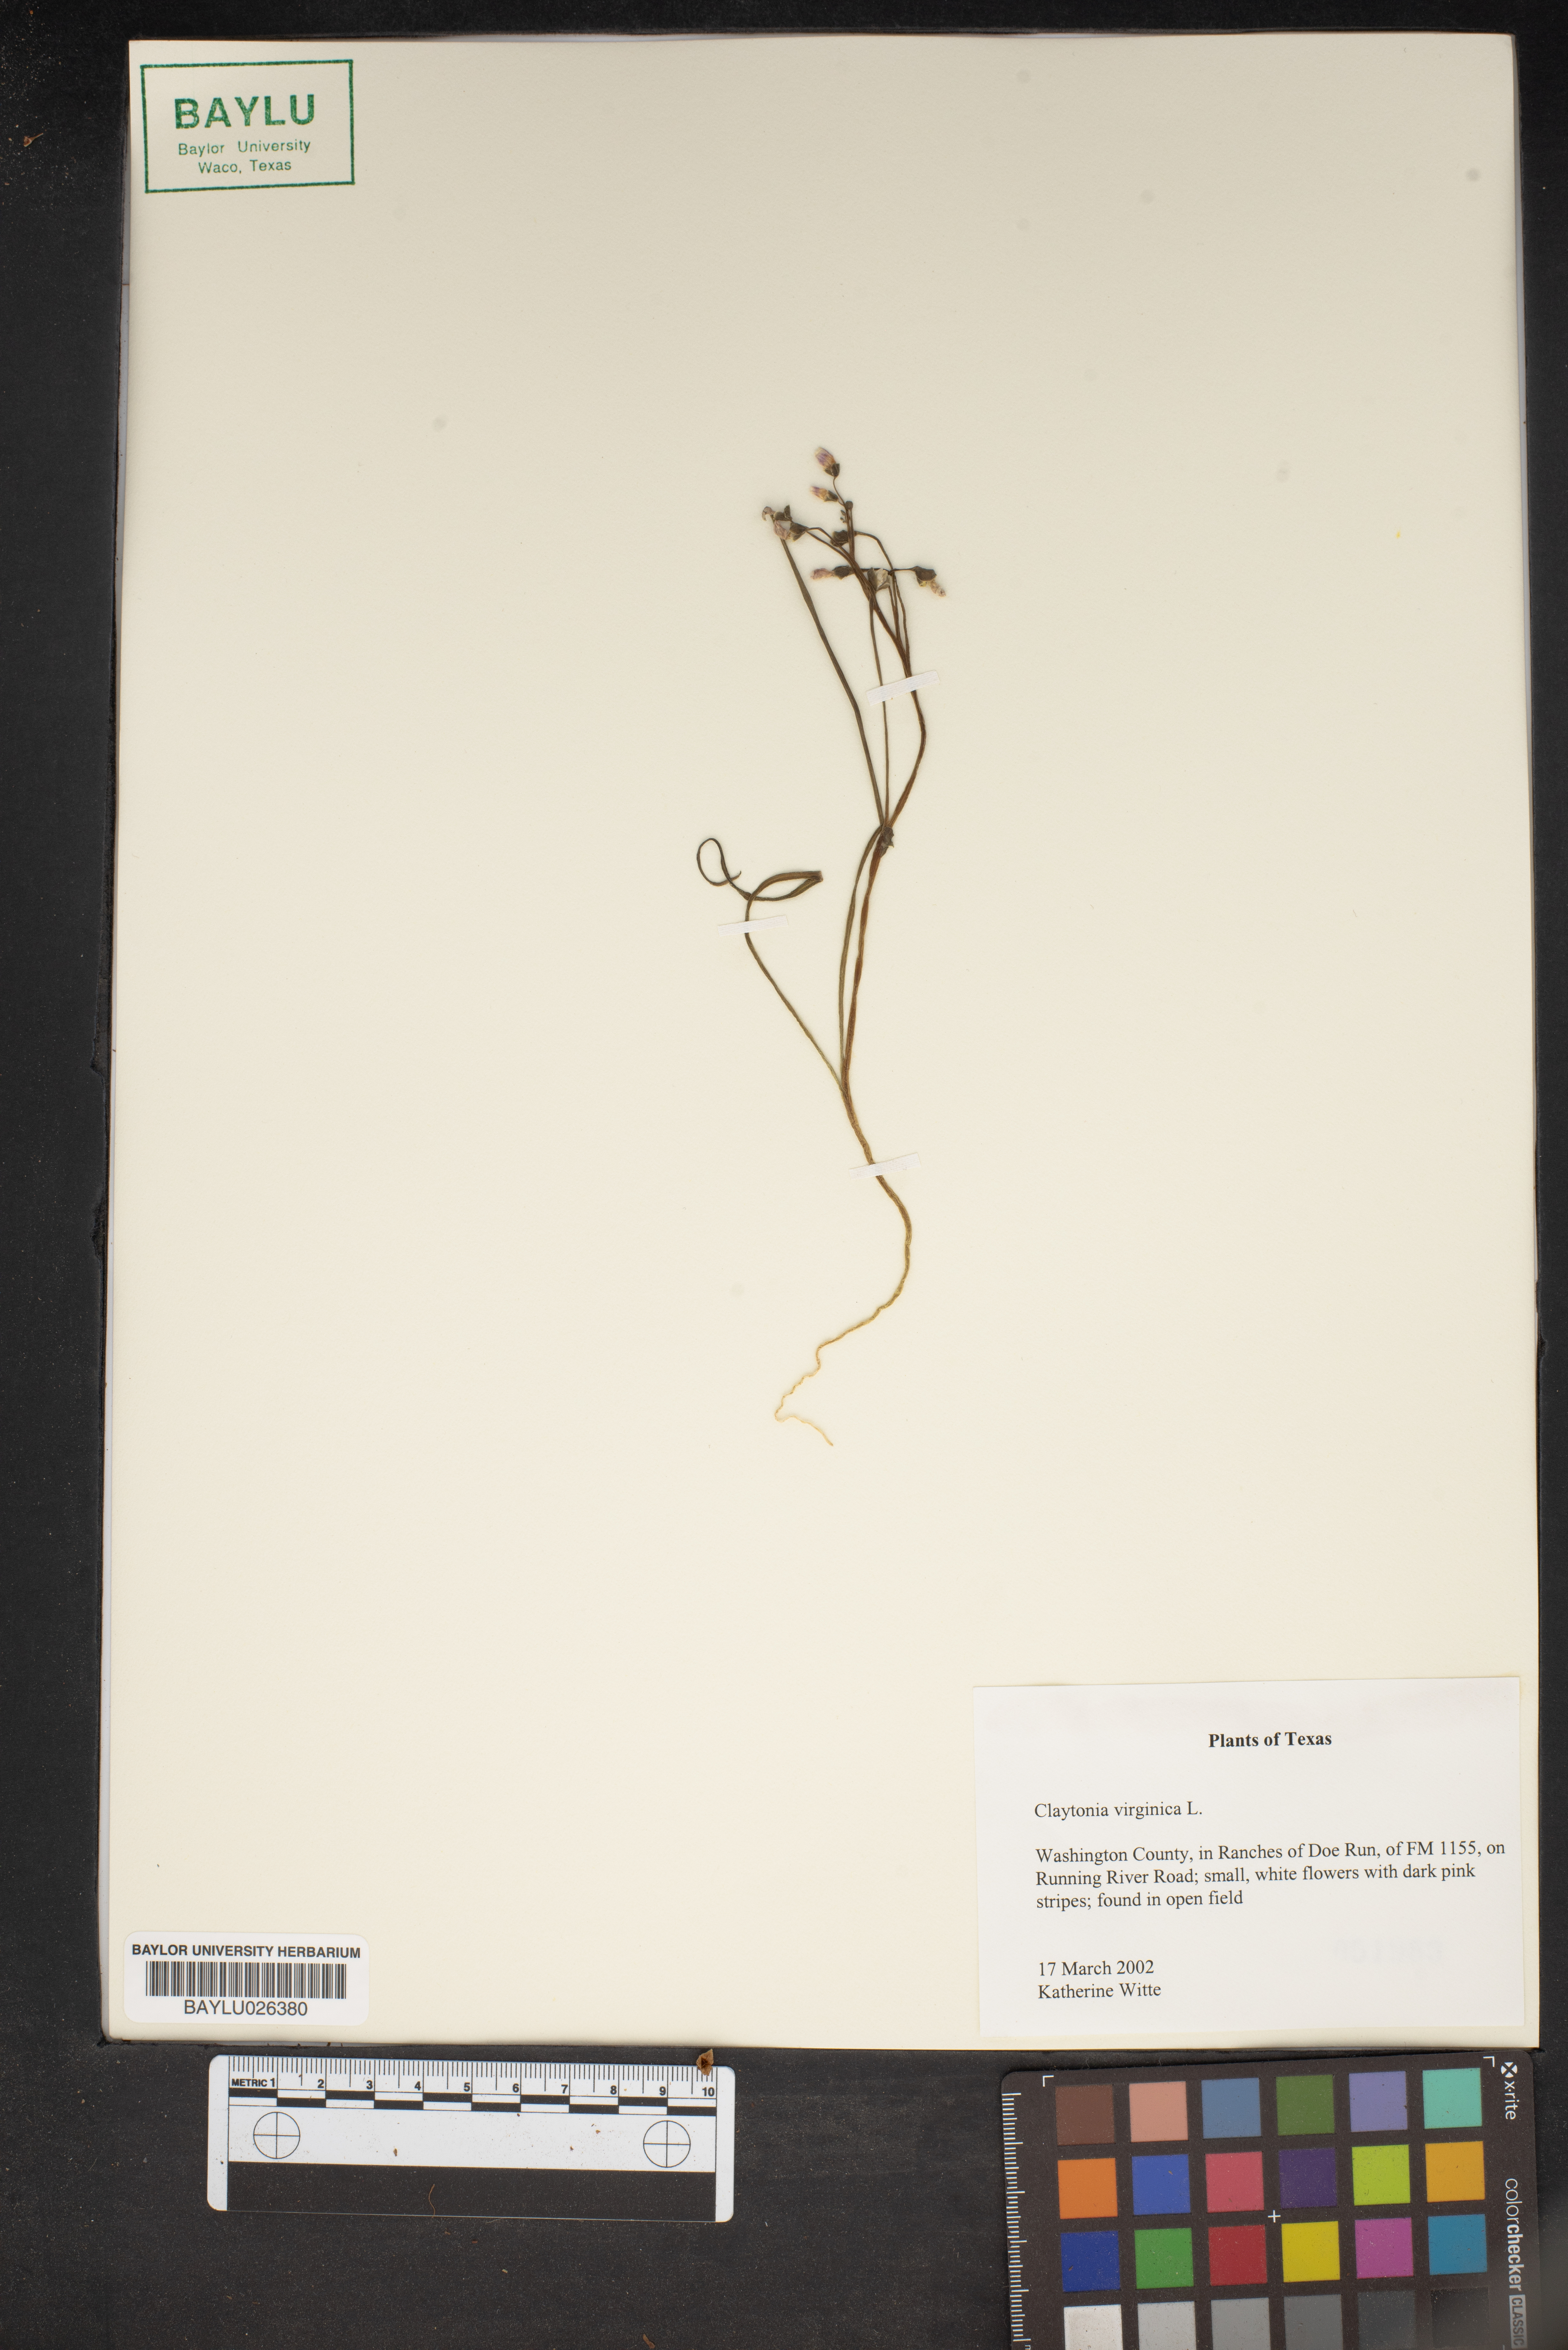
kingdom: Plantae
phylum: Tracheophyta
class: Magnoliopsida
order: Caryophyllales
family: Montiaceae
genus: Claytonia
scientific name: Claytonia virginica
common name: Virginia springbeauty
